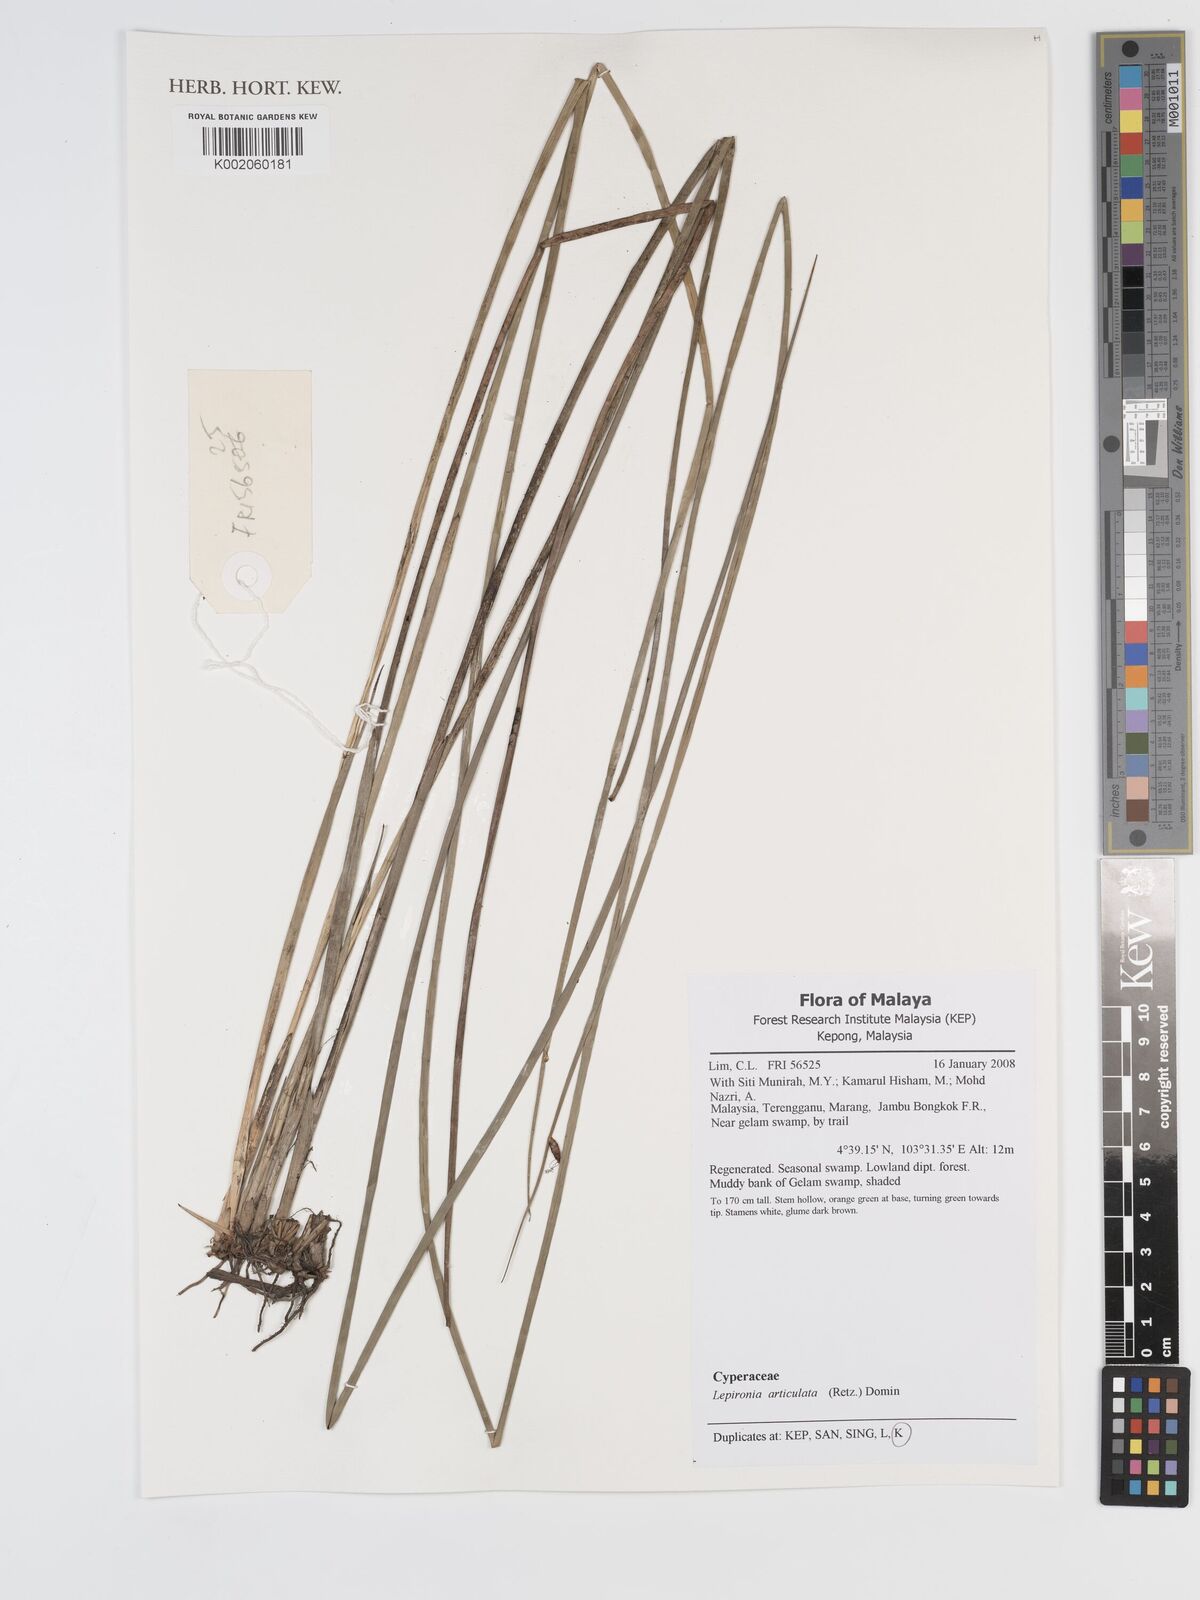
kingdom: Plantae
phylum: Tracheophyta
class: Liliopsida
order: Poales
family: Cyperaceae
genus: Lepironia
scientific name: Lepironia articulata
